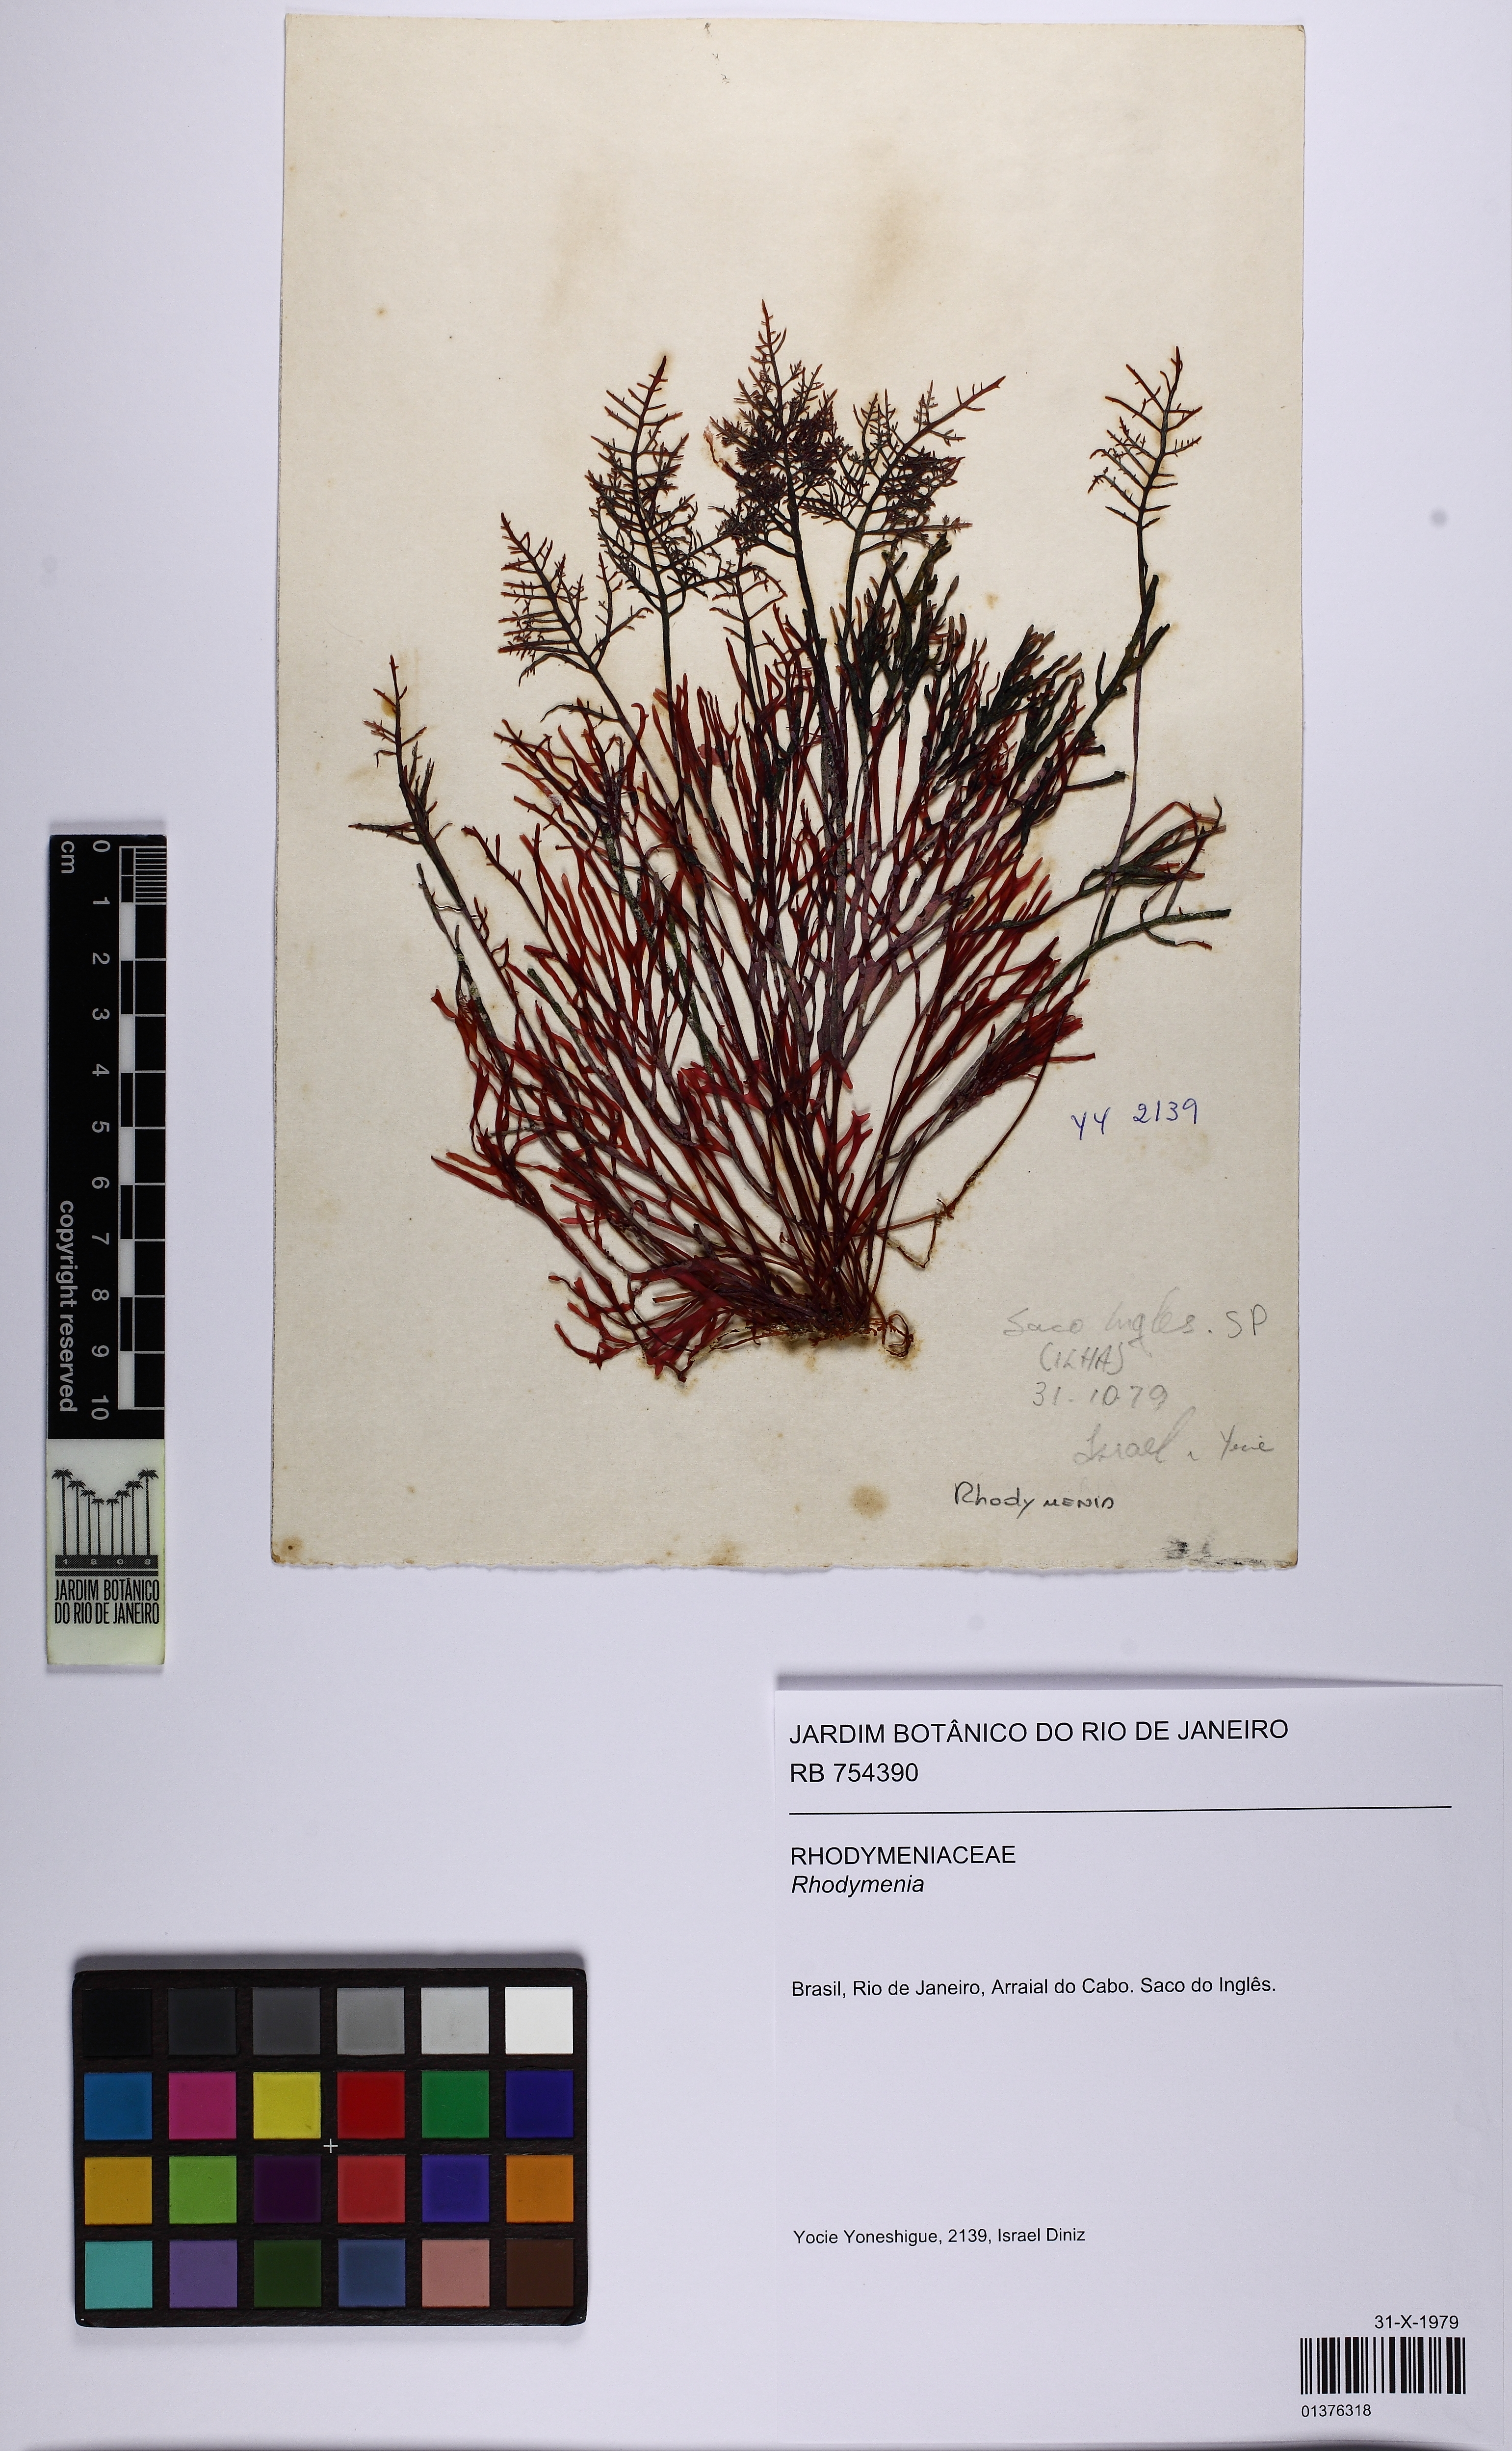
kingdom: Plantae
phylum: Rhodophyta
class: Florideophyceae
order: Rhodymeniales
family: Rhodymeniaceae
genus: Rhodymenia
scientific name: Rhodymenia
